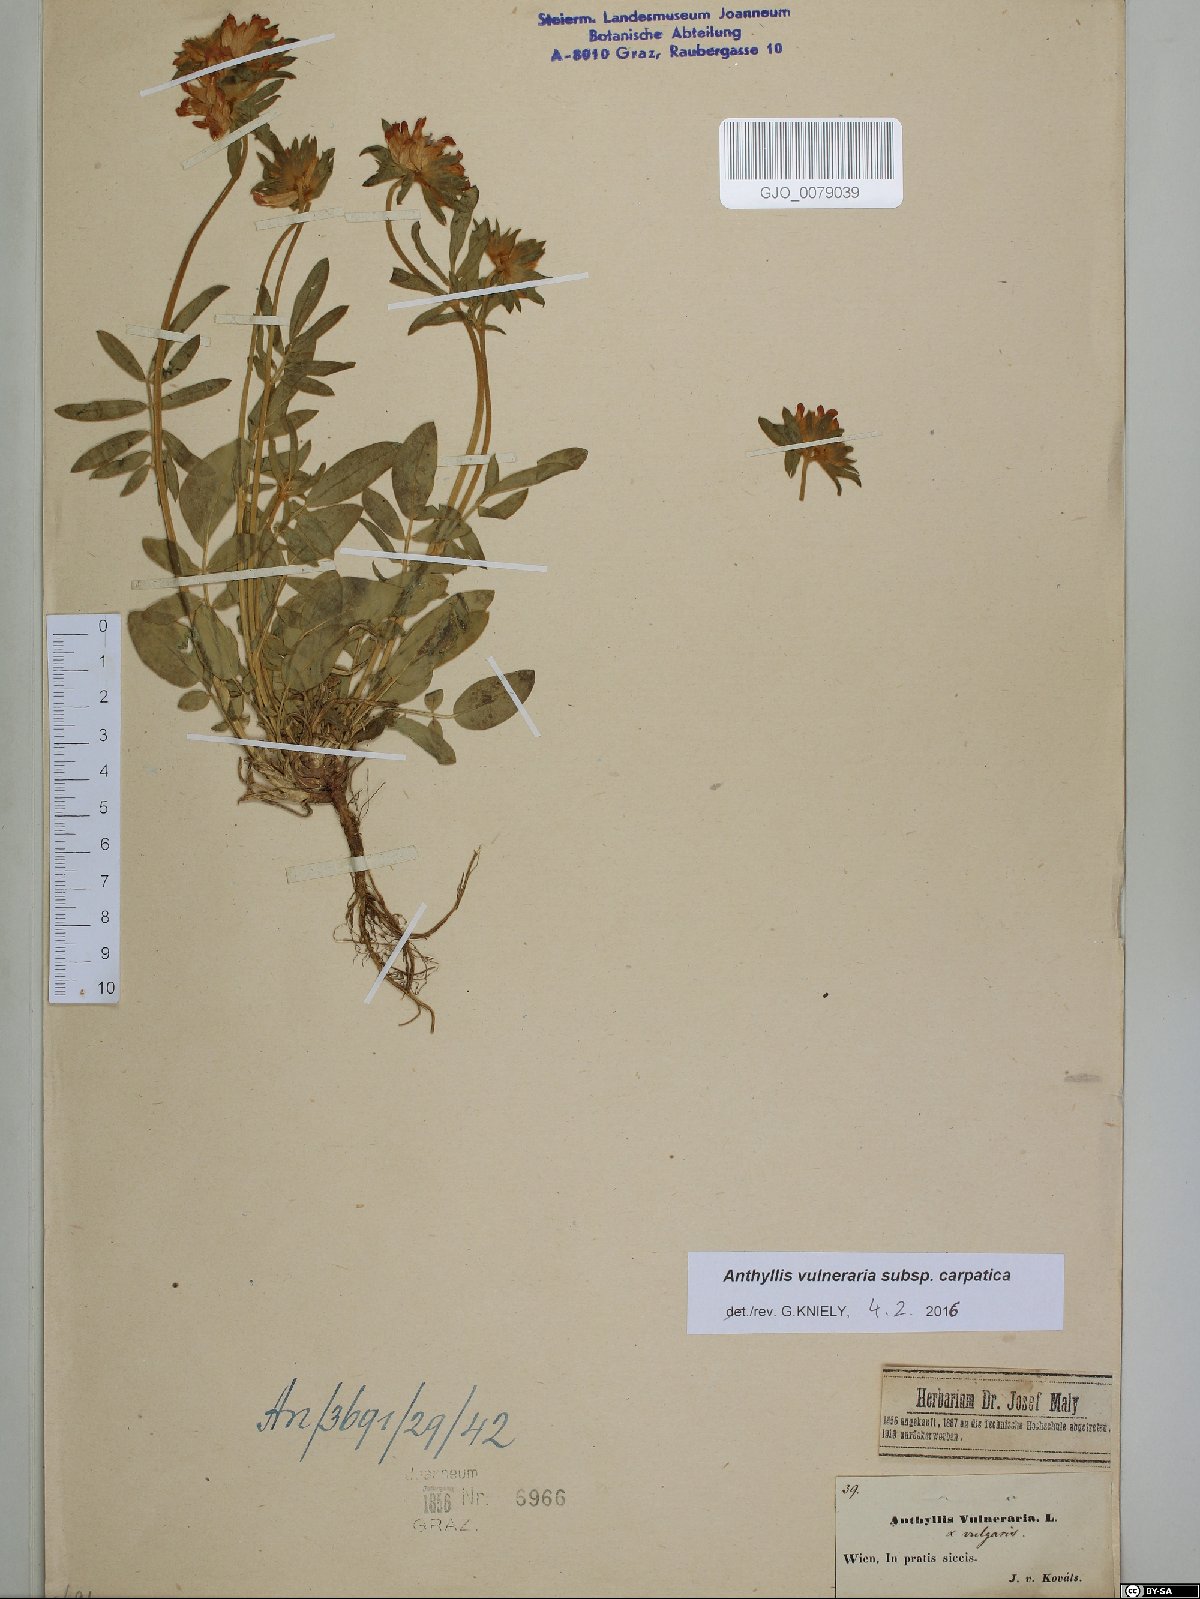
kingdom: Plantae
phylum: Tracheophyta
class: Magnoliopsida
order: Fabales
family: Fabaceae
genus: Anthyllis
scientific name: Anthyllis vulneraria
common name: Kidney vetch
